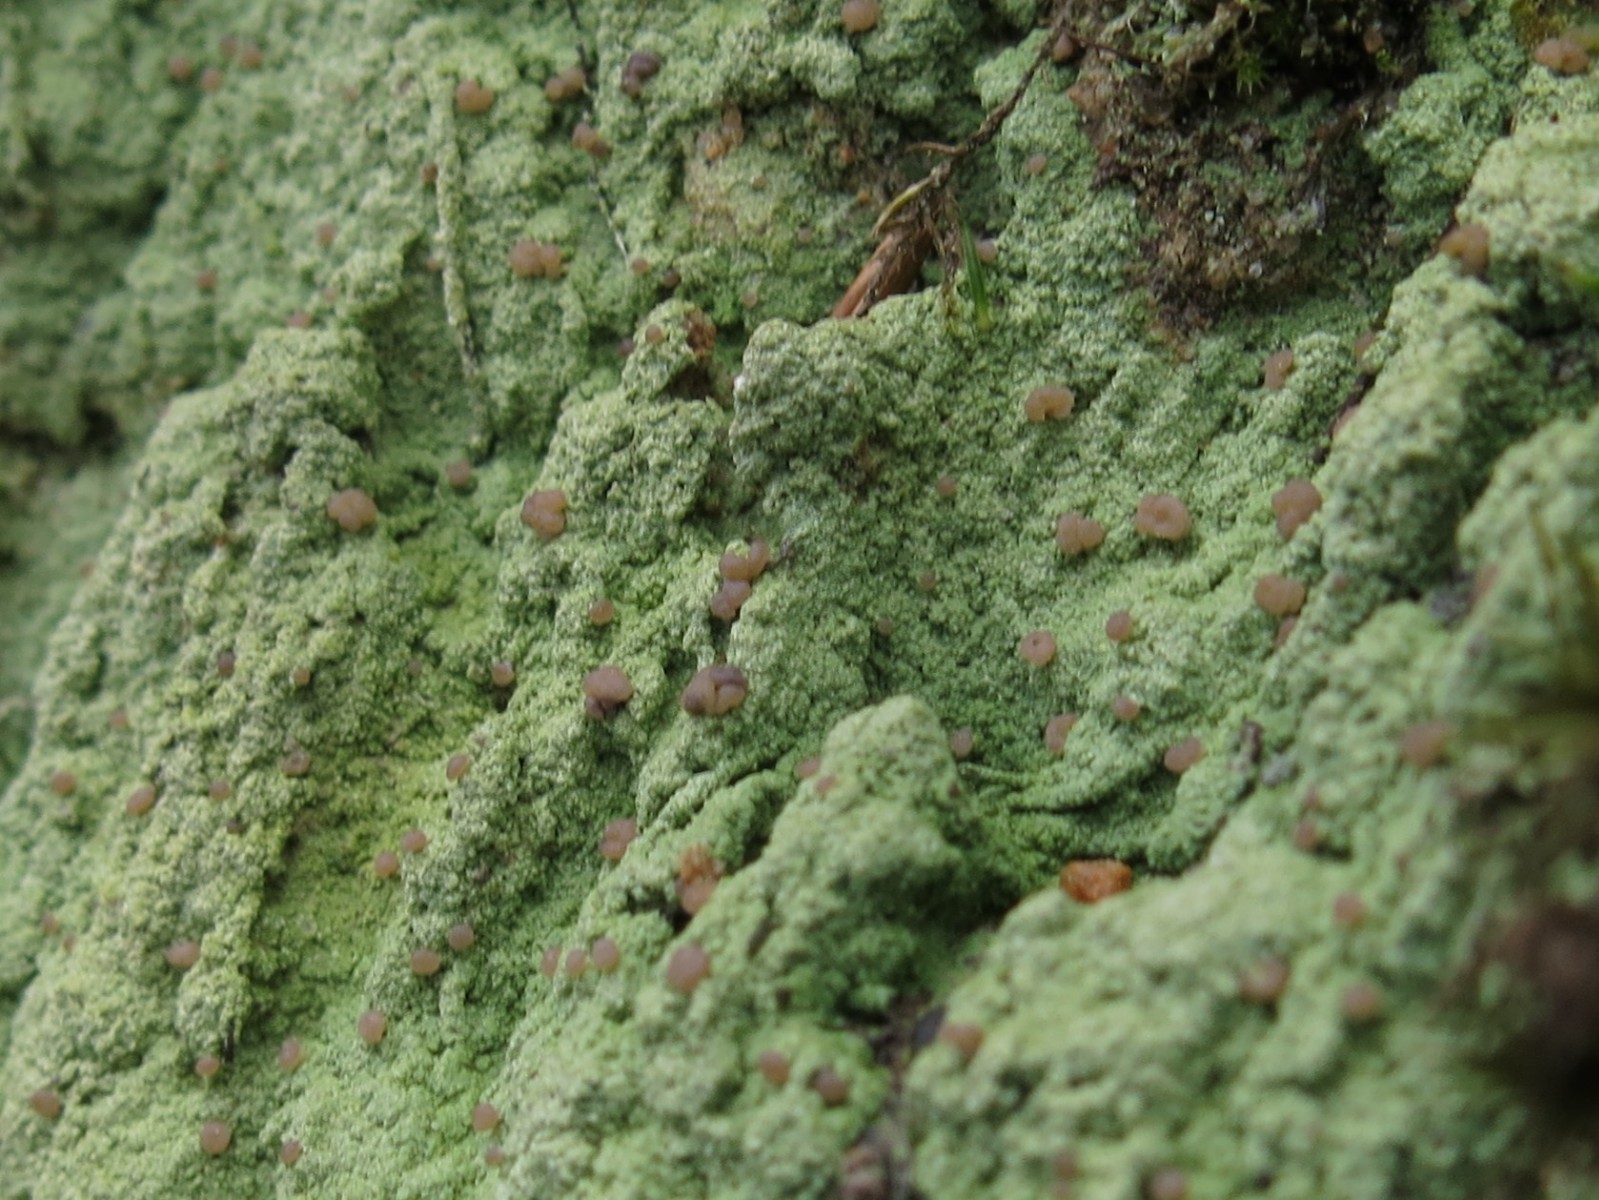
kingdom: Fungi
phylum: Ascomycota
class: Lecanoromycetes
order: Baeomycetales
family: Baeomycetaceae
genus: Baeomyces
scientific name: Baeomyces rufus
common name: rødbrun svampelav
